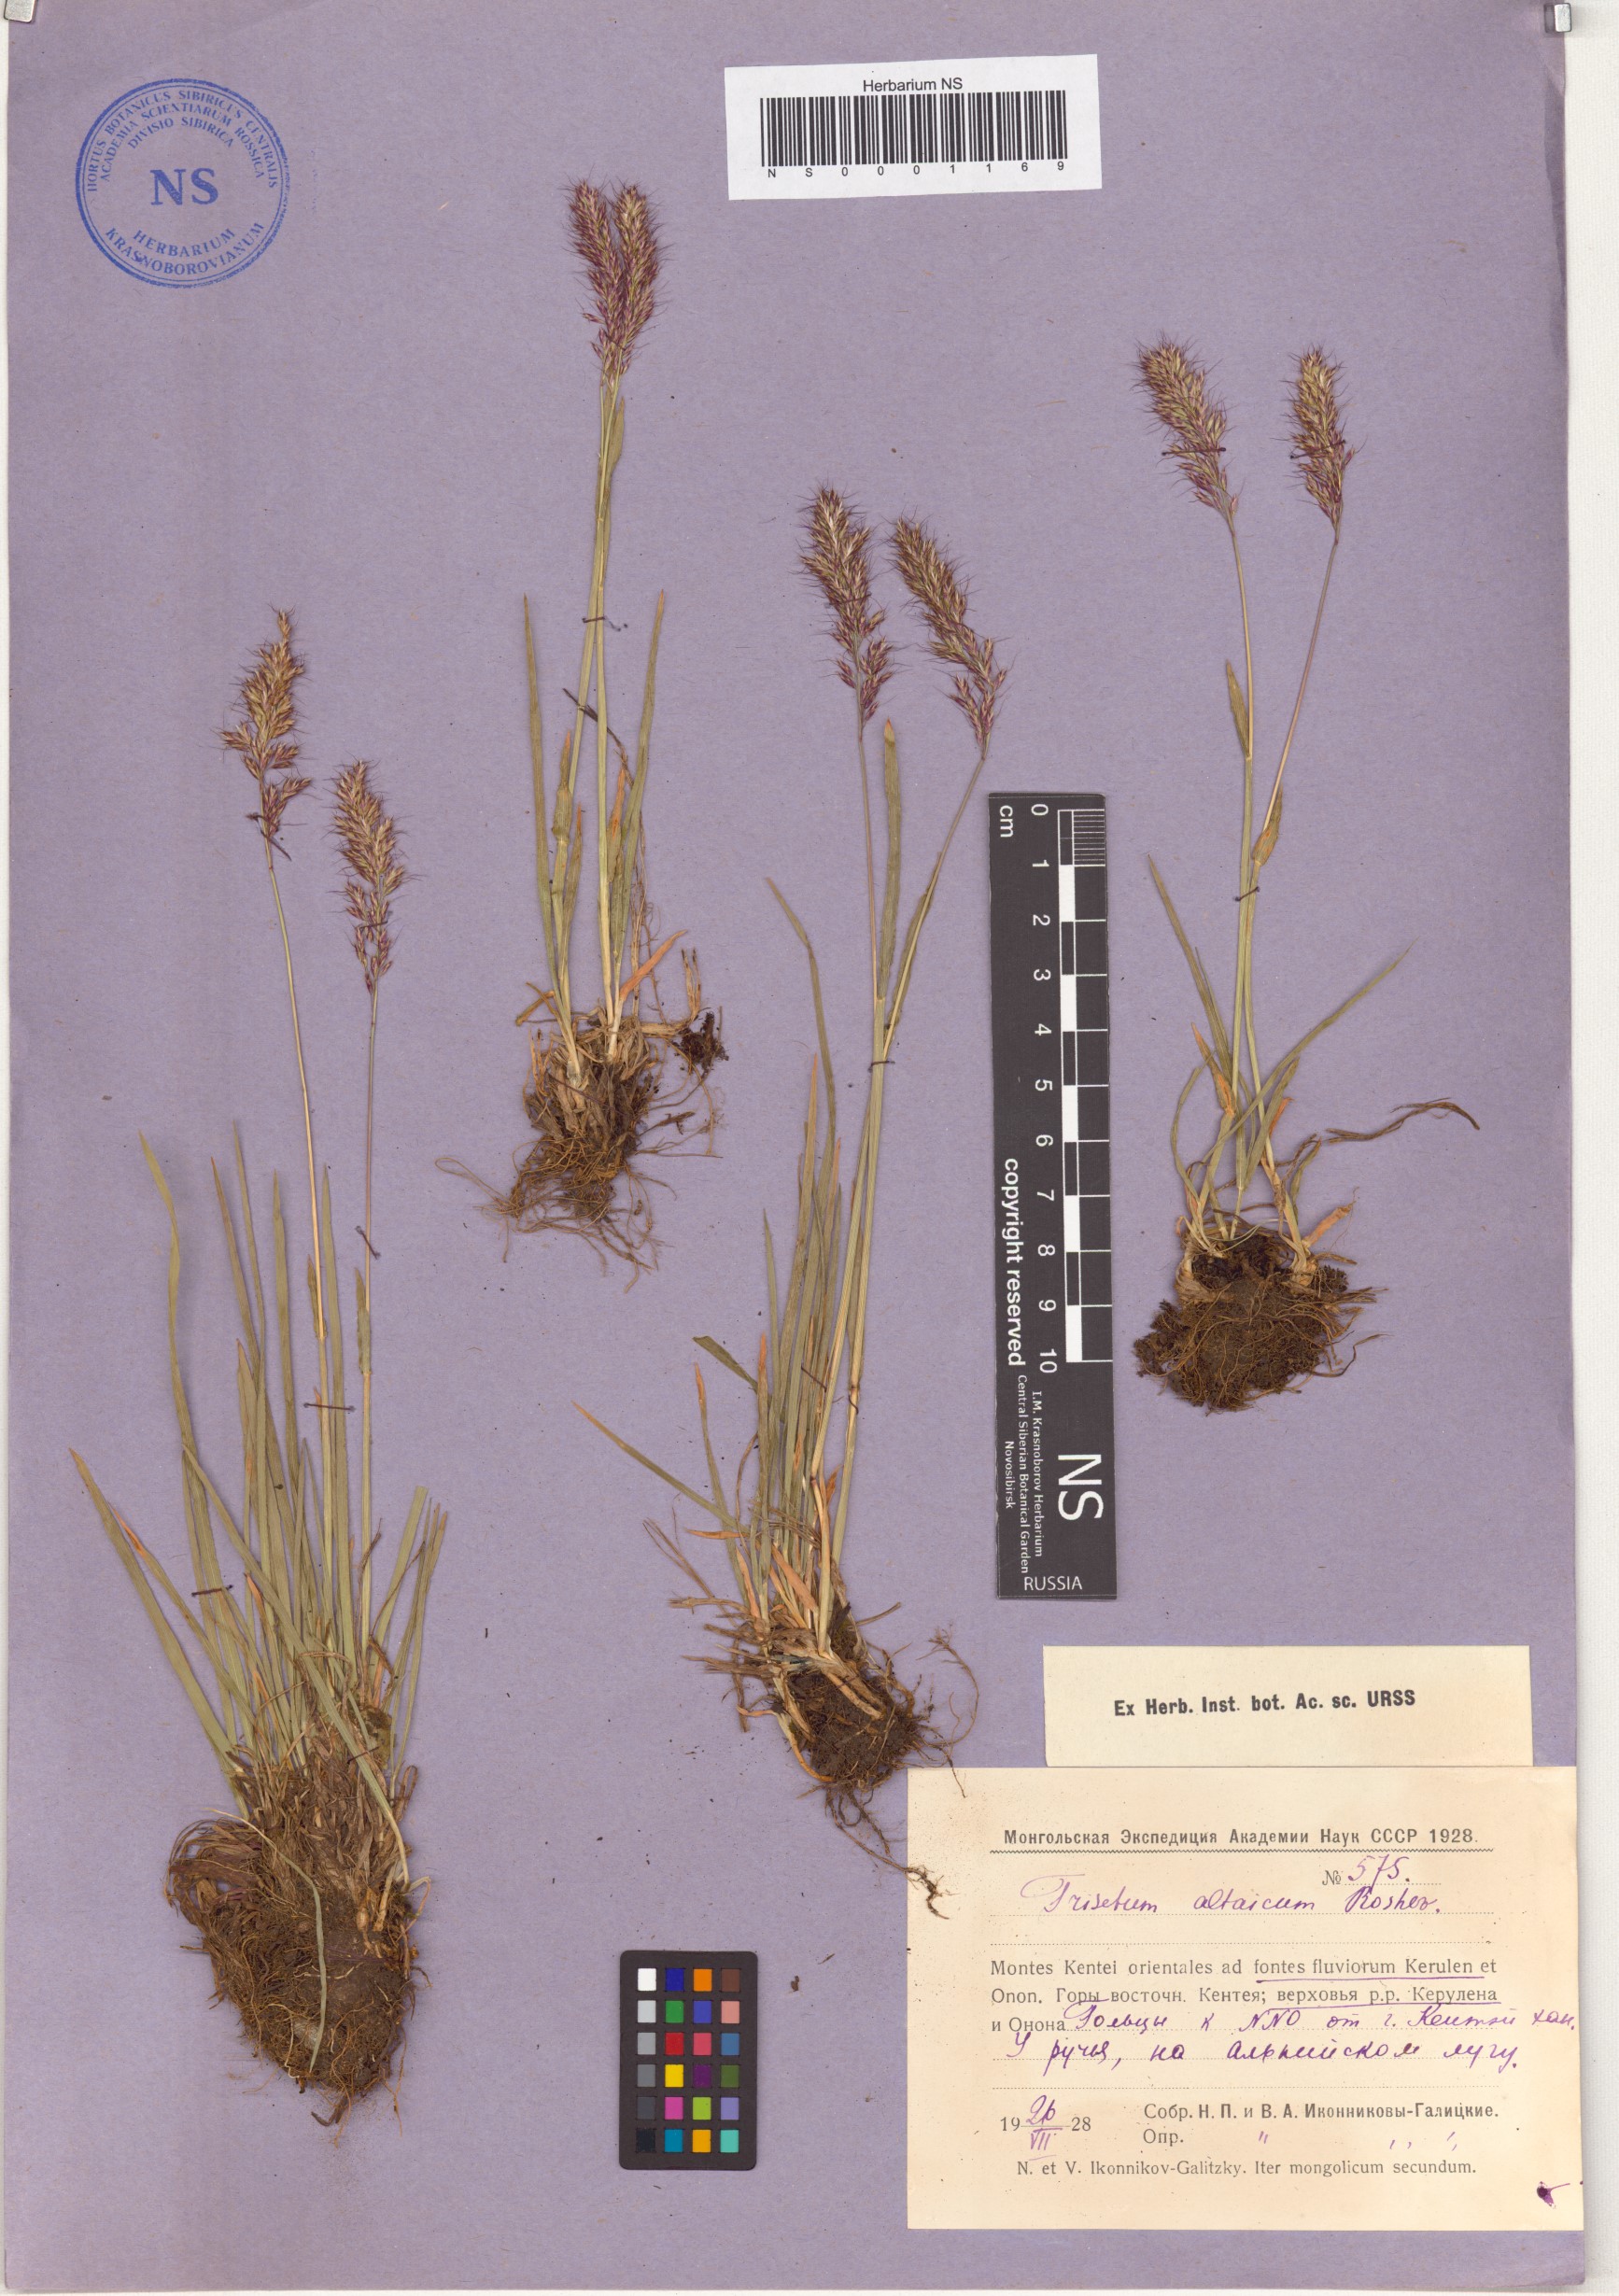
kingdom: Plantae
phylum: Tracheophyta
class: Liliopsida
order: Poales
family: Poaceae
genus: Trisetum
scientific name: Trisetum altaicum
